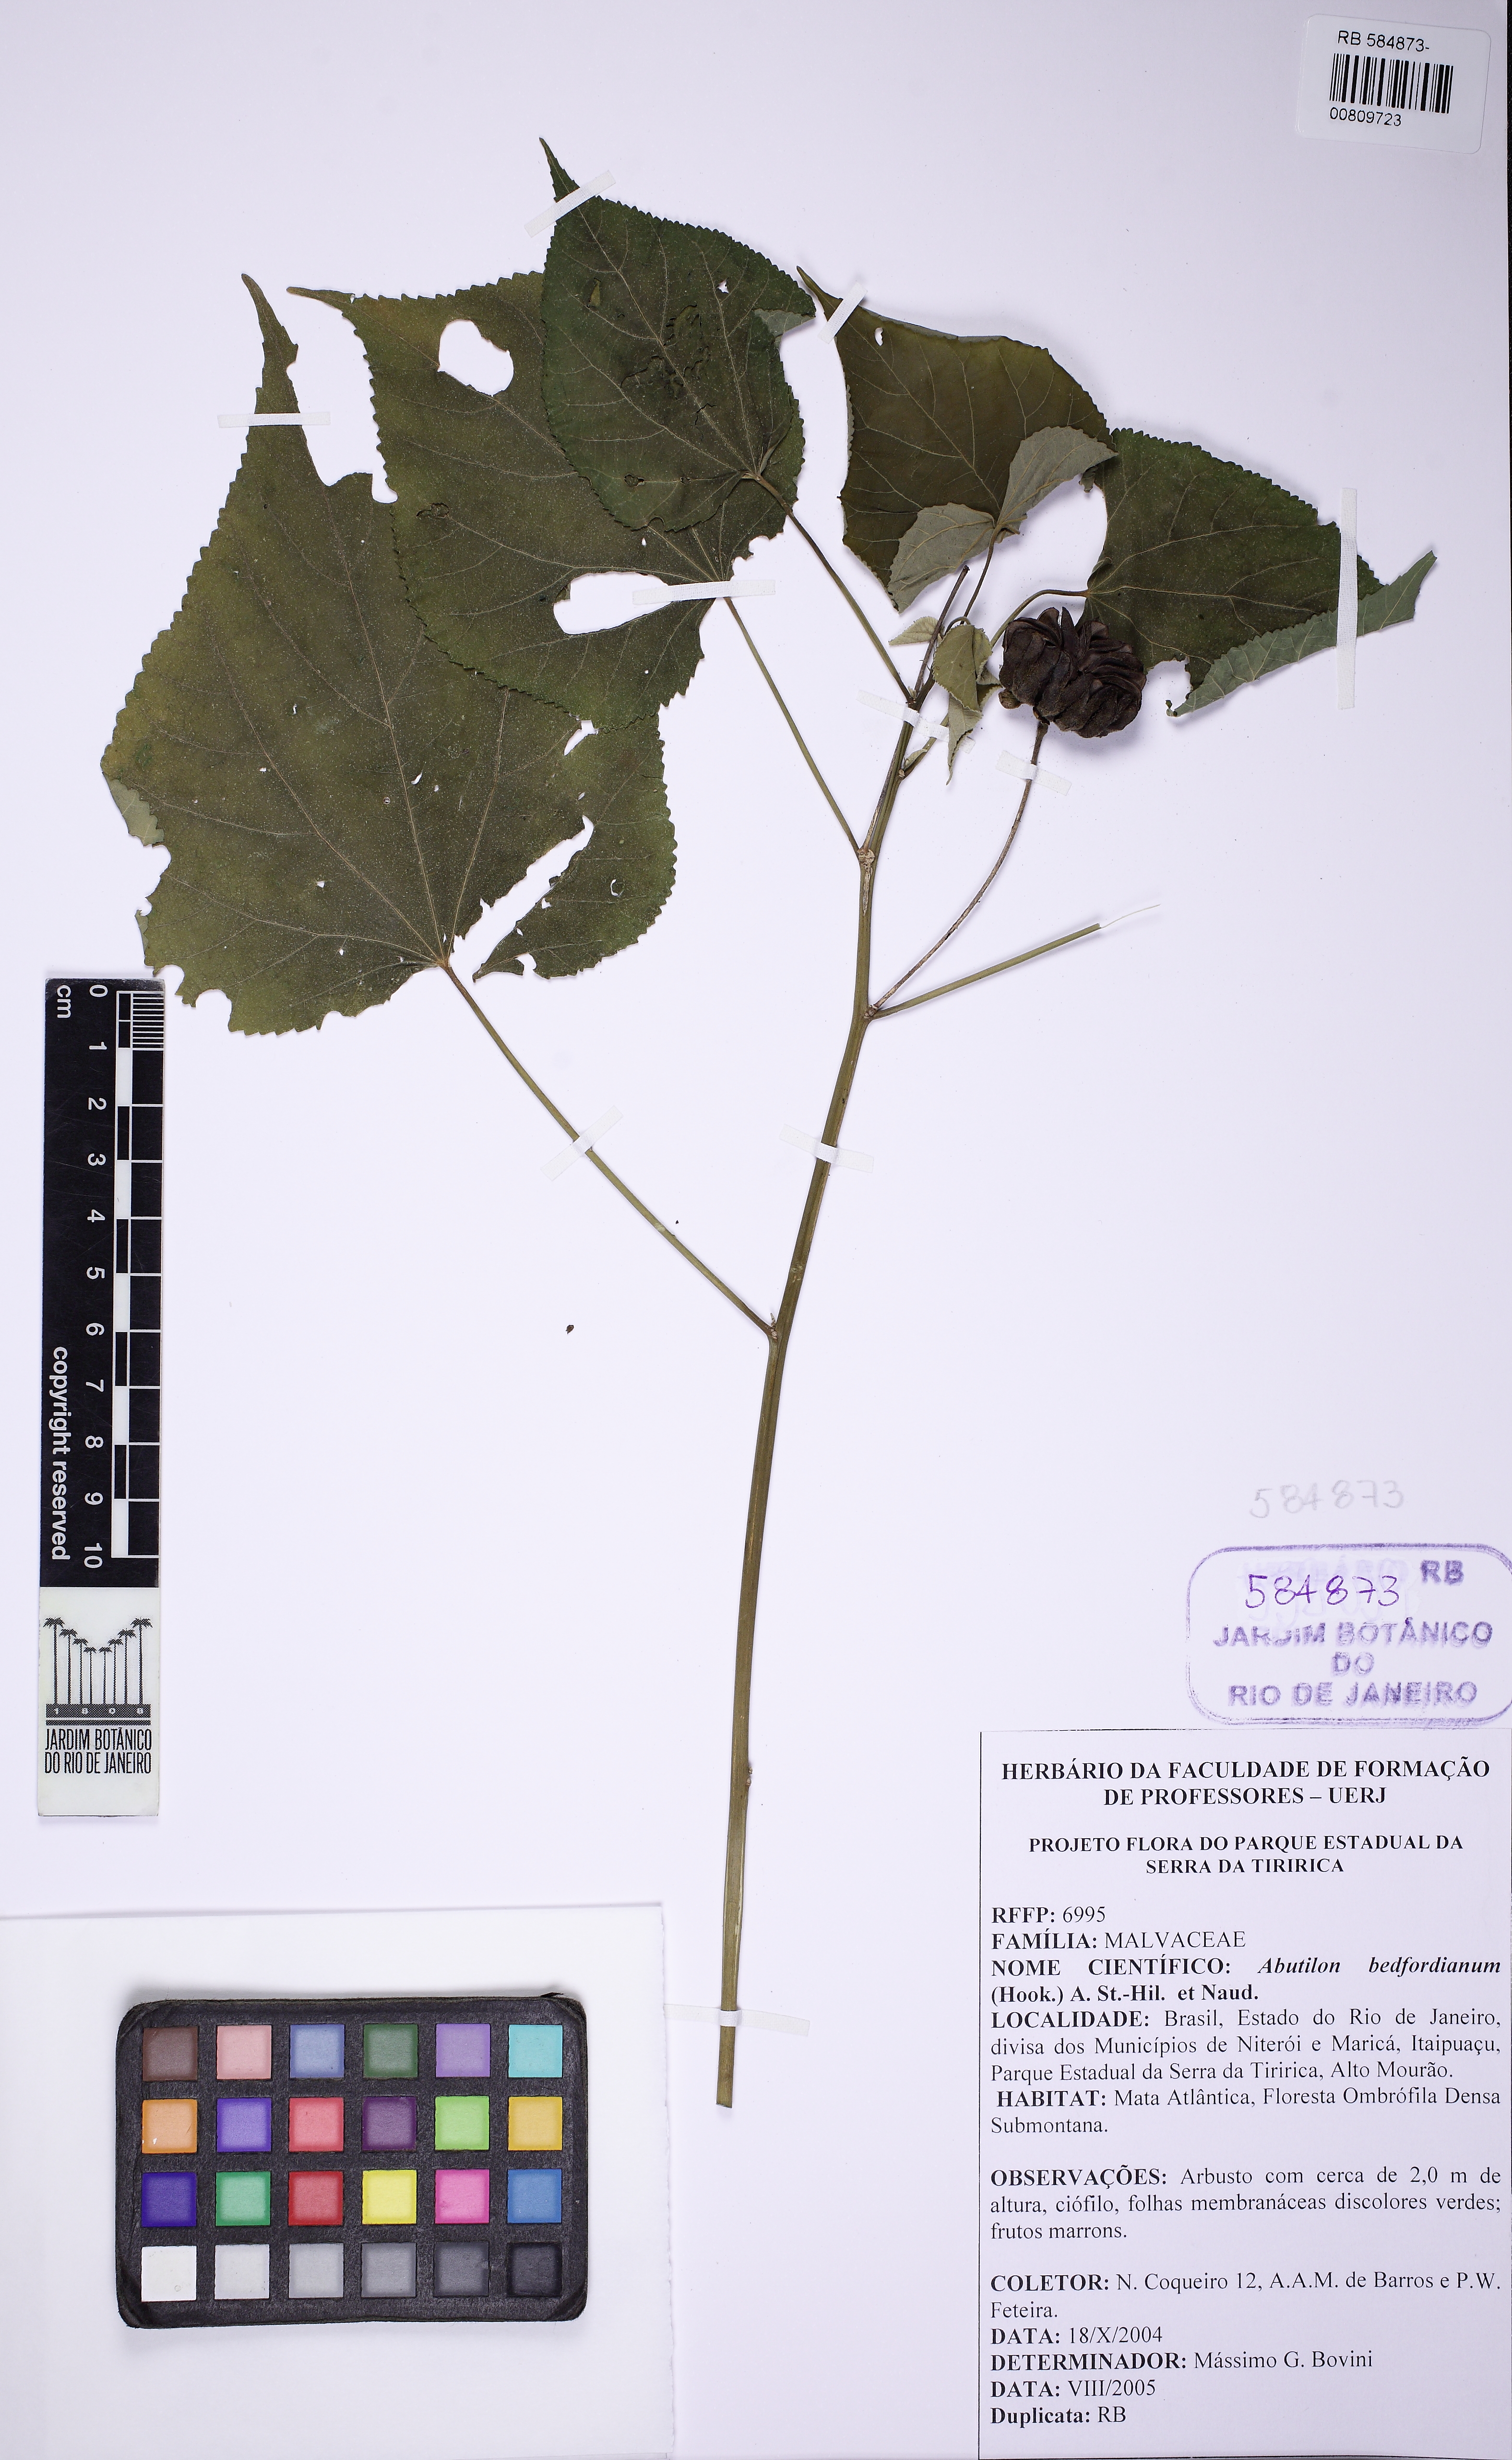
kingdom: Plantae
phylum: Tracheophyta
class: Magnoliopsida
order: Malvales
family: Malvaceae
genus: Callianthe
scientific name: Callianthe bedfordiana
